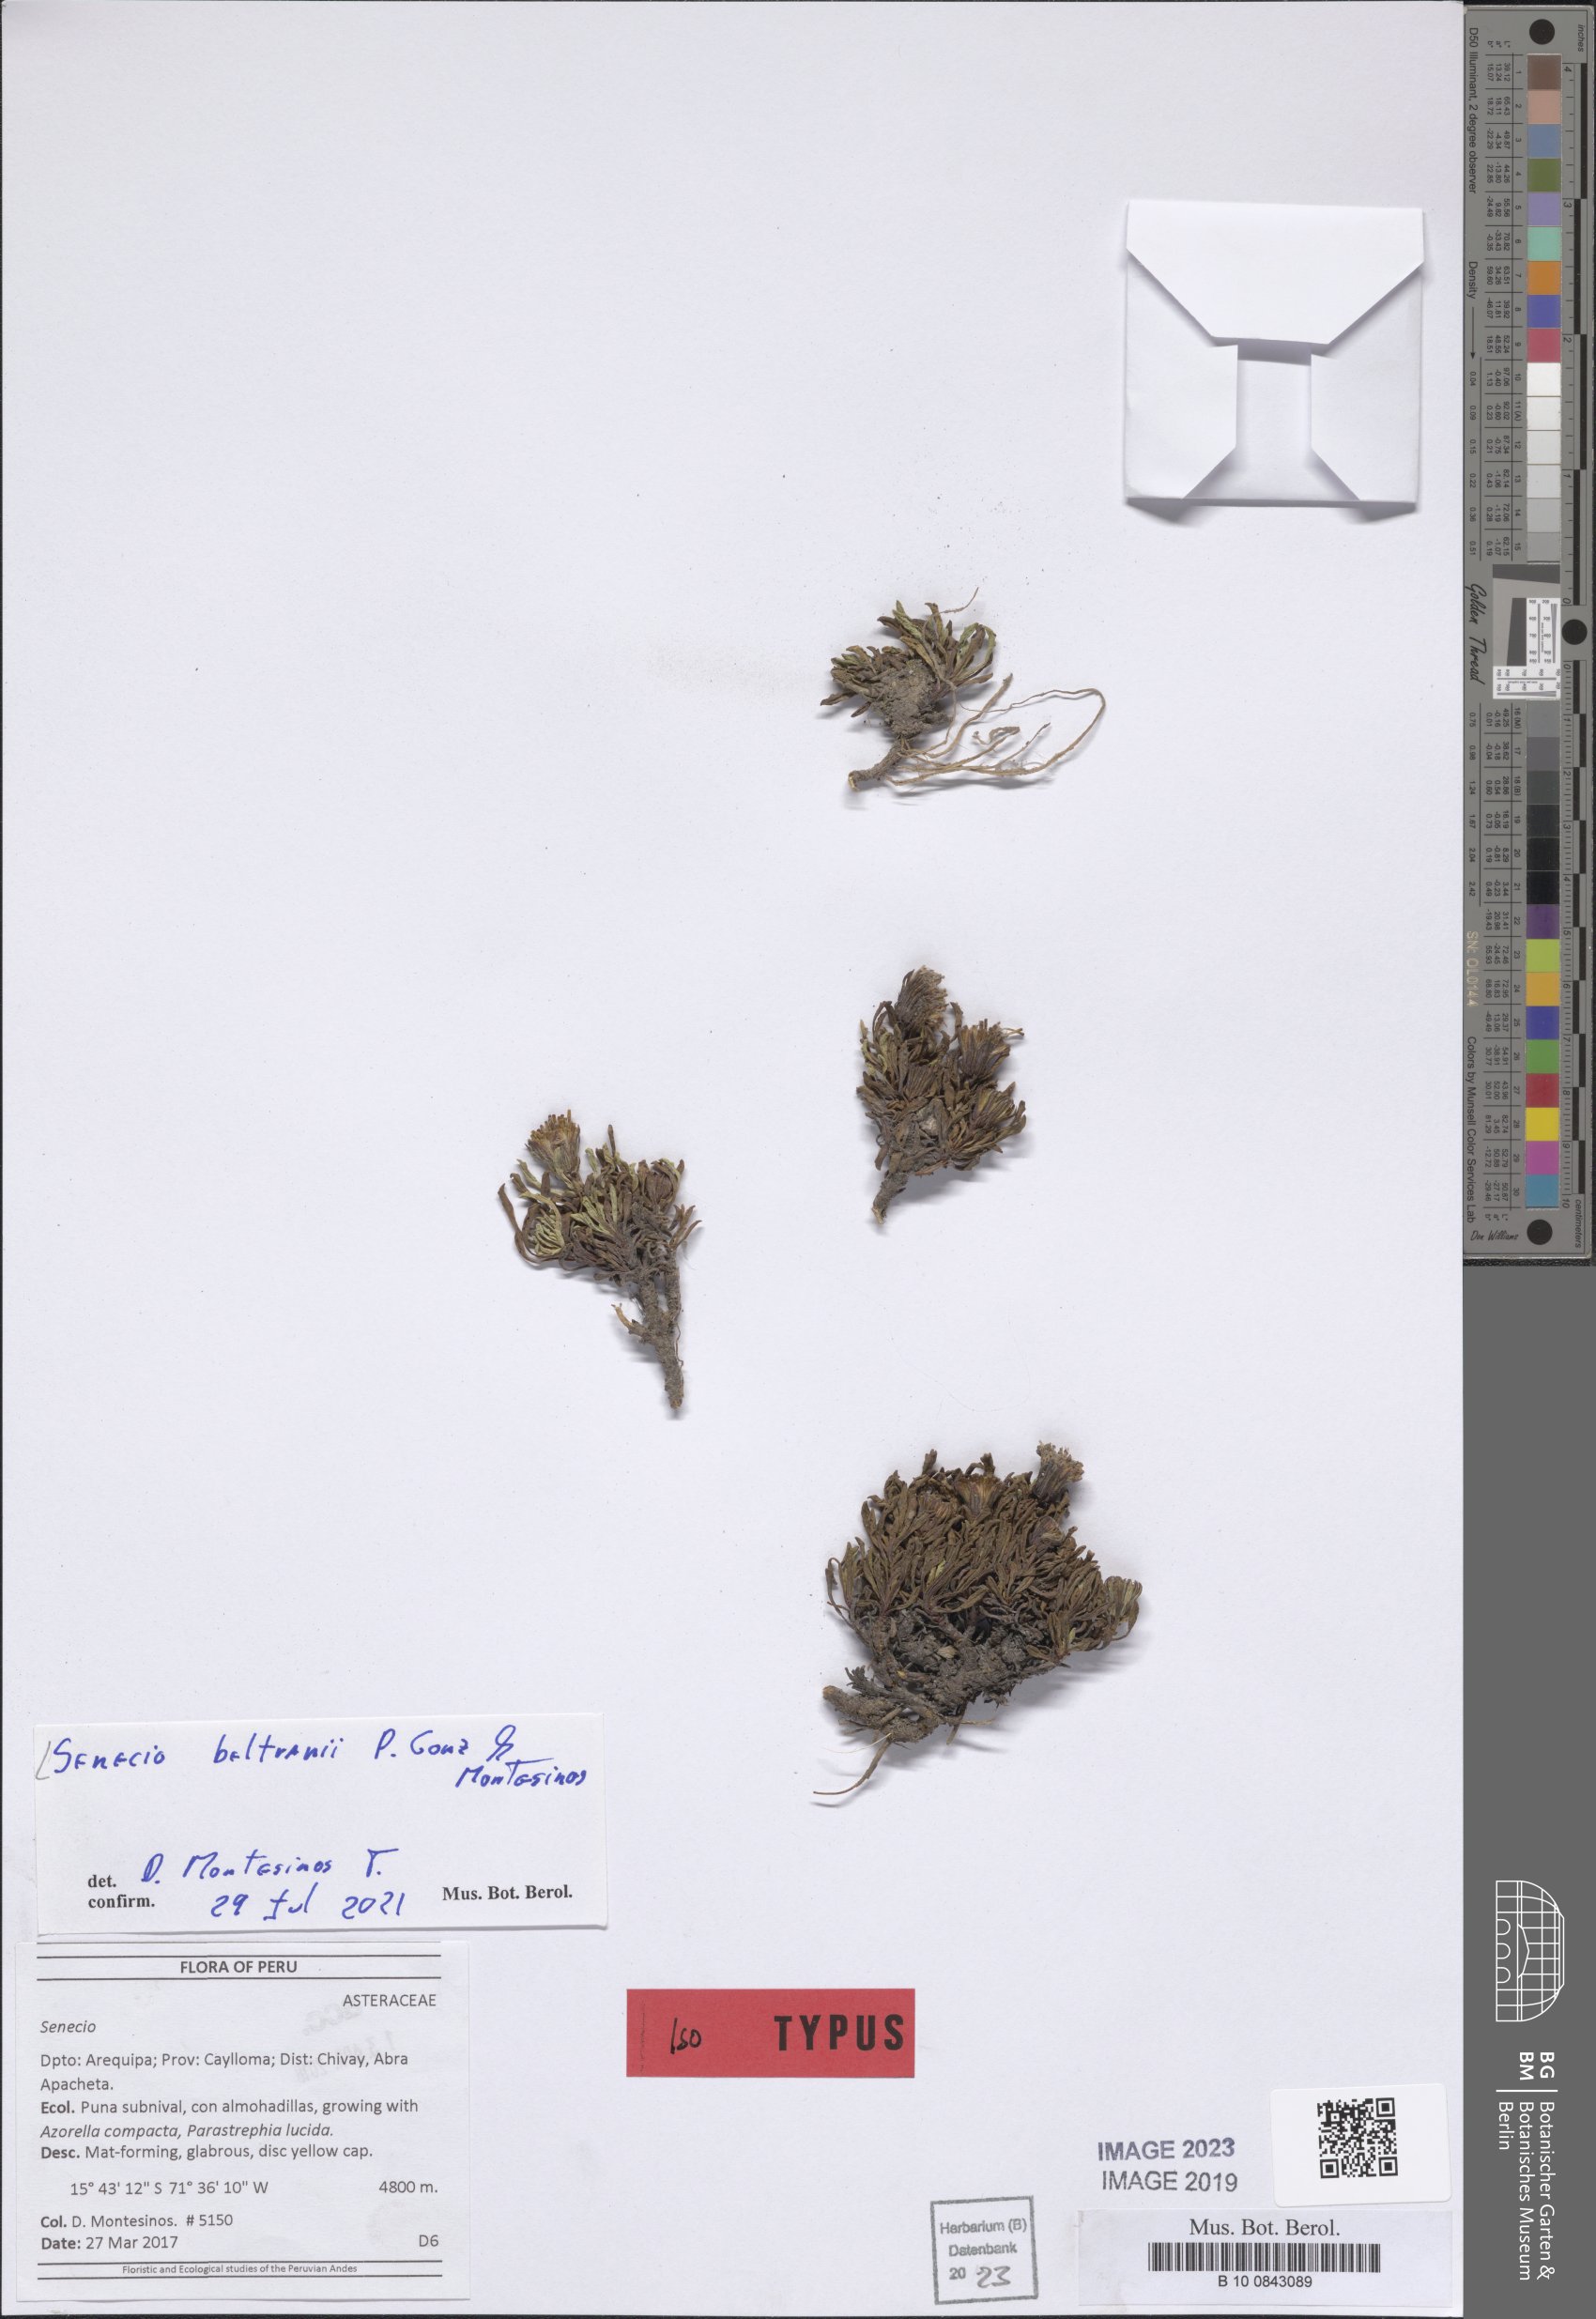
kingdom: Plantae
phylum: Tracheophyta
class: Magnoliopsida
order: Asterales
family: Asteraceae
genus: Senecio
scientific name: Senecio beltranii
